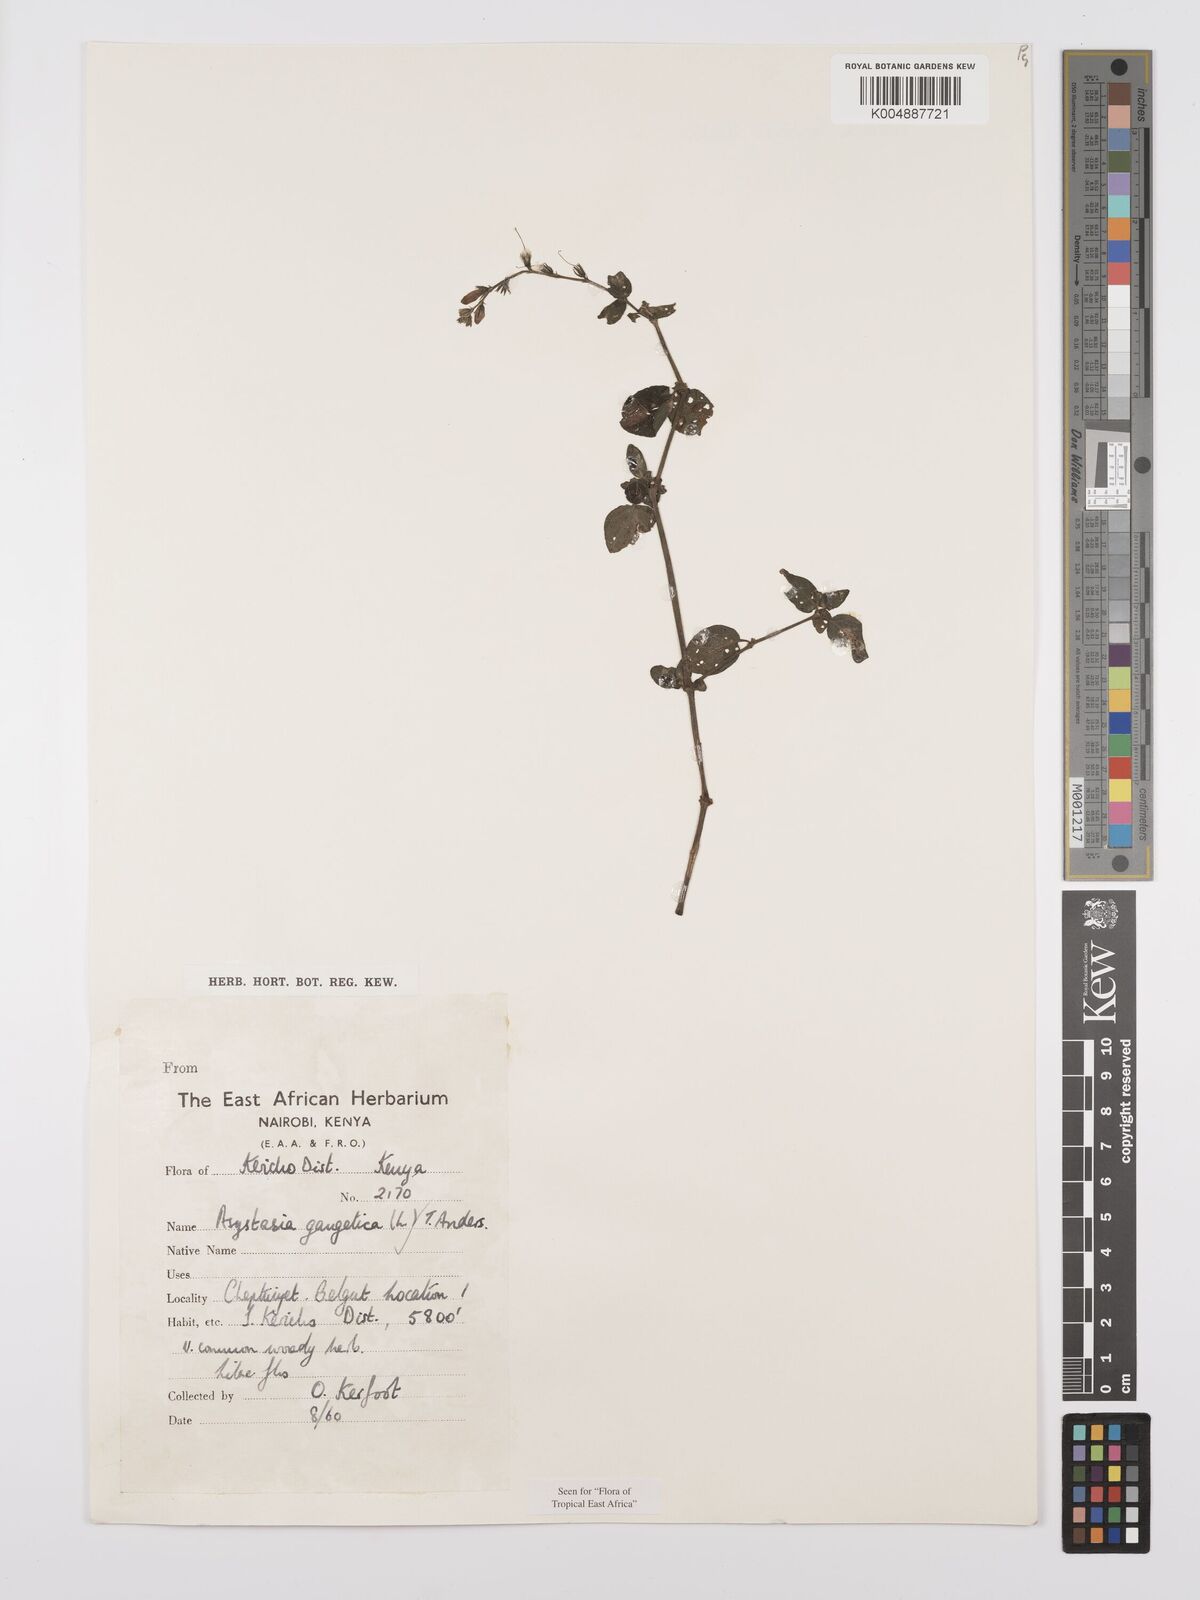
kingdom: Plantae
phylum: Tracheophyta
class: Magnoliopsida
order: Lamiales
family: Acanthaceae
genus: Asystasia
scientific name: Asystasia gangetica
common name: Chinese violet
